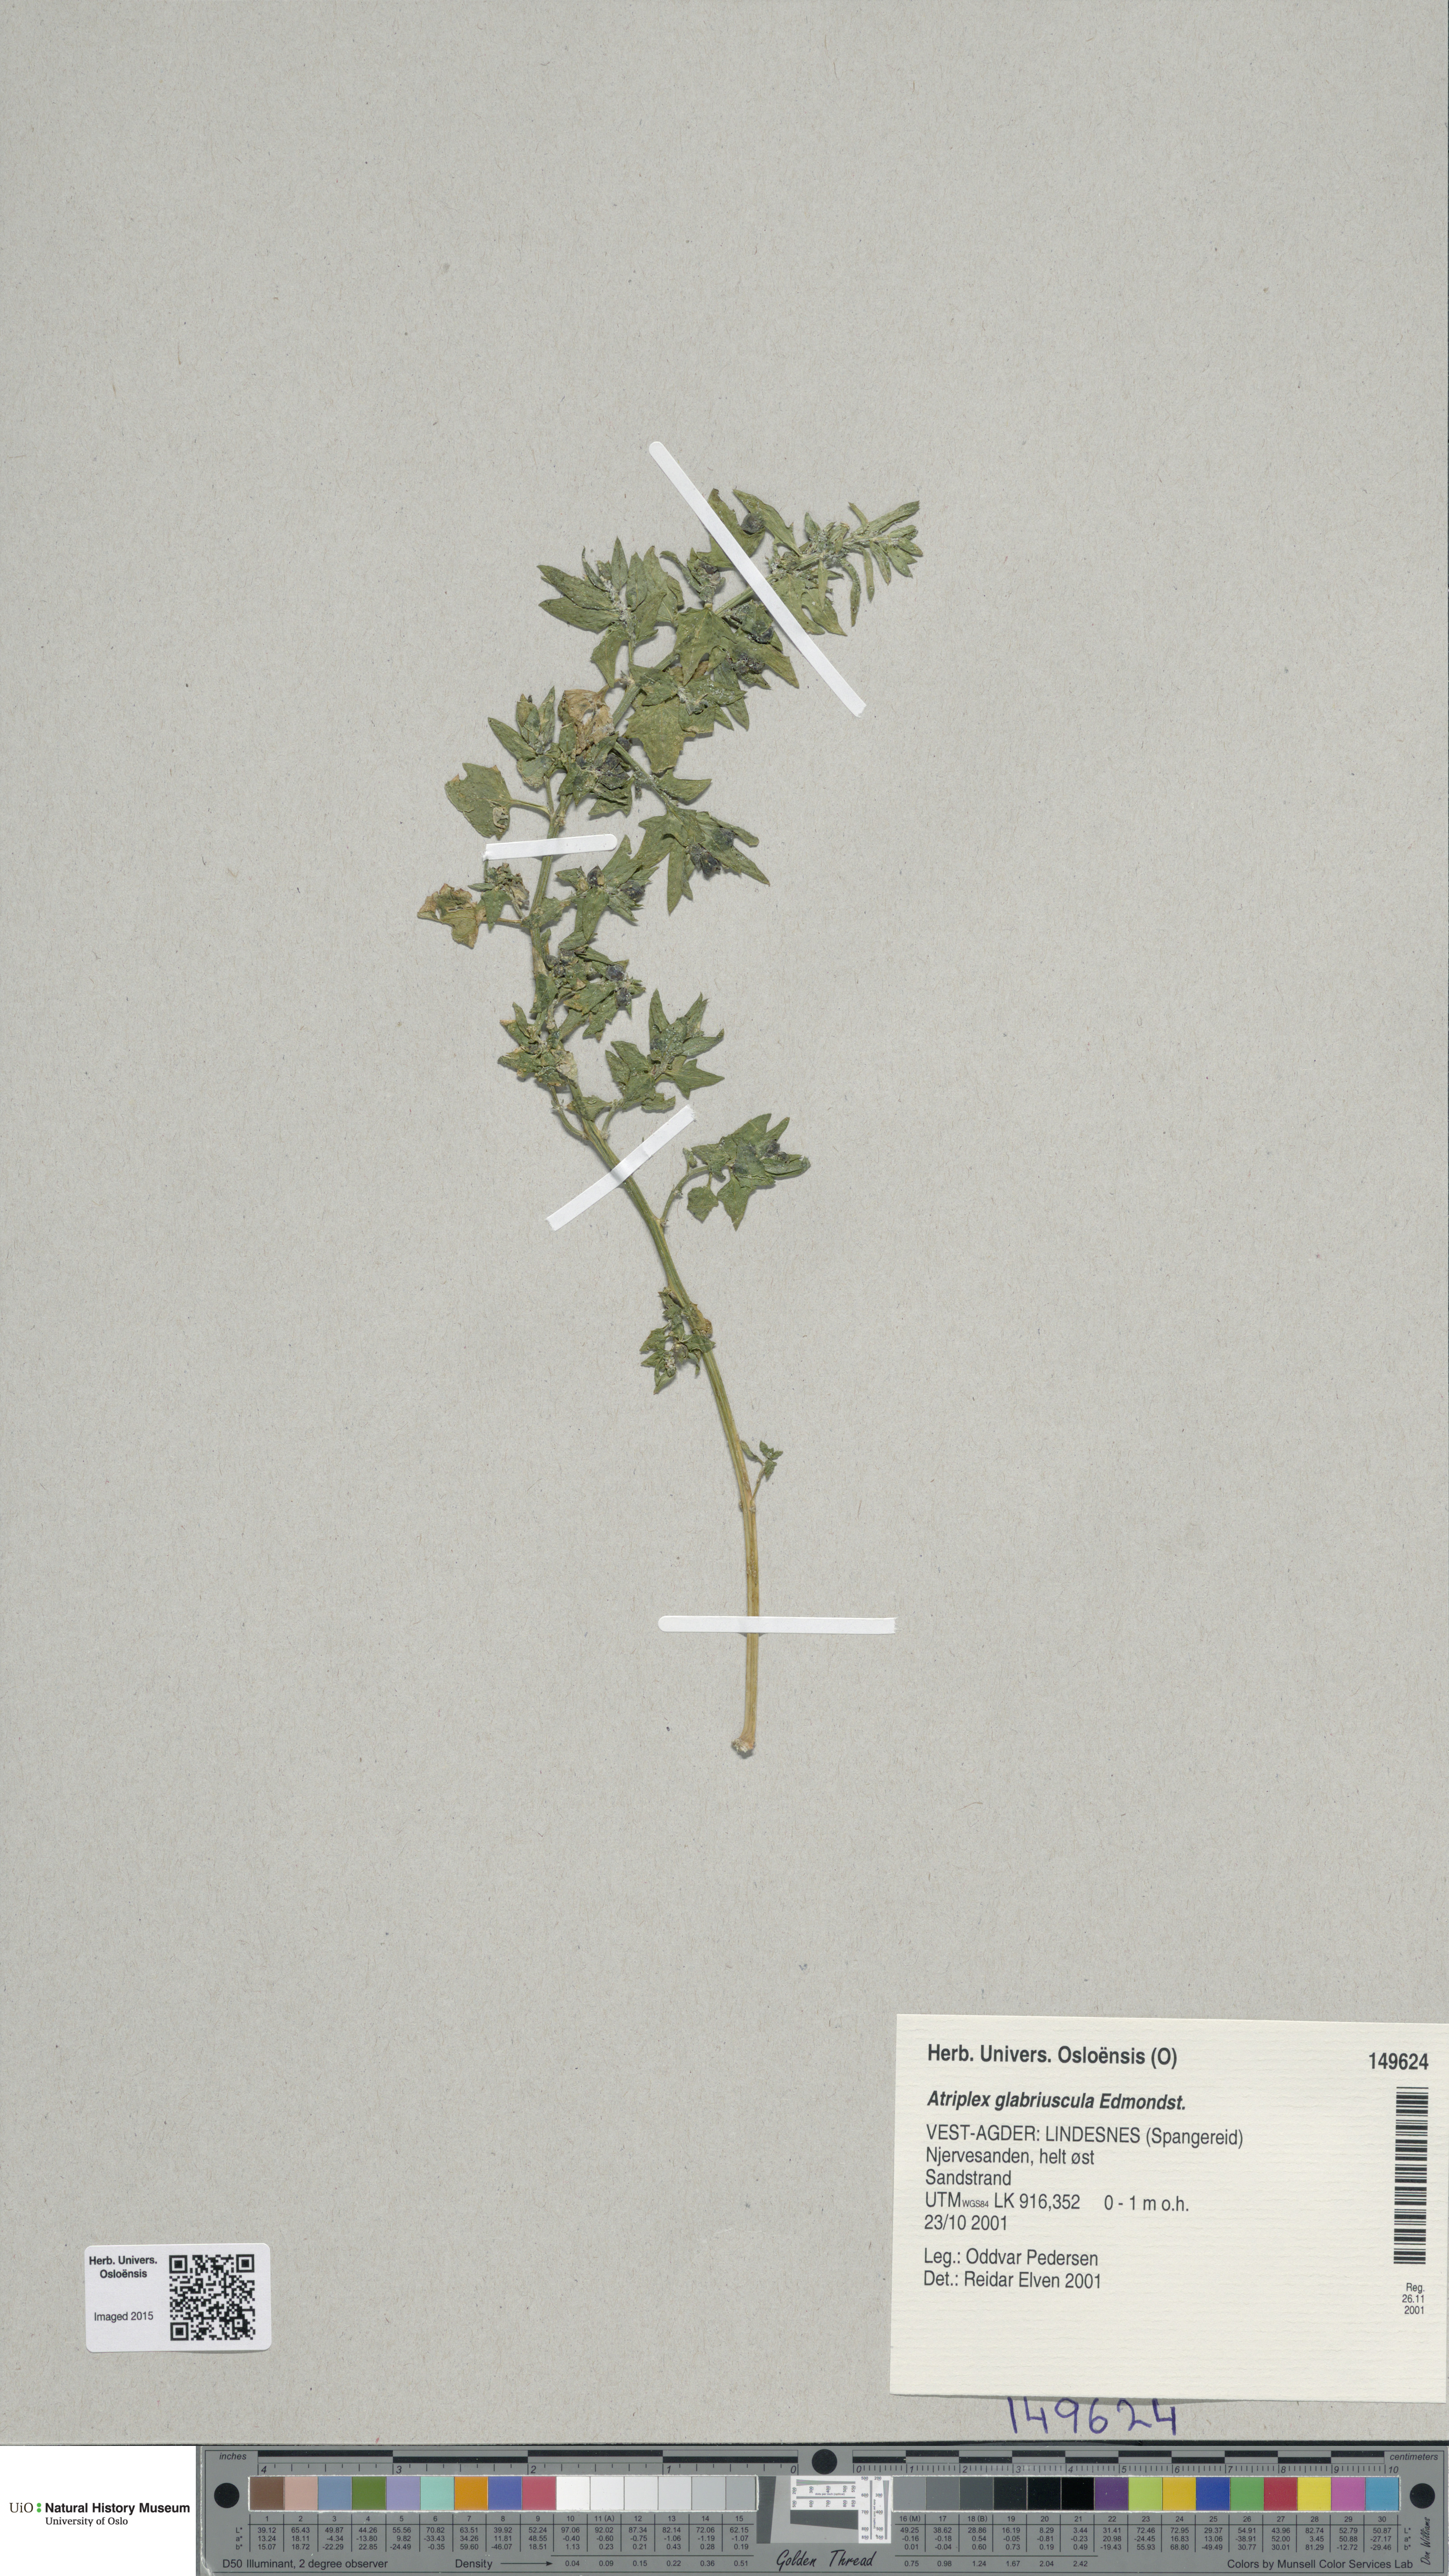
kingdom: Plantae
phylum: Tracheophyta
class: Magnoliopsida
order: Caryophyllales
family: Amaranthaceae
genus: Atriplex
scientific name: Atriplex glabriuscula
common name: Babington's orache
